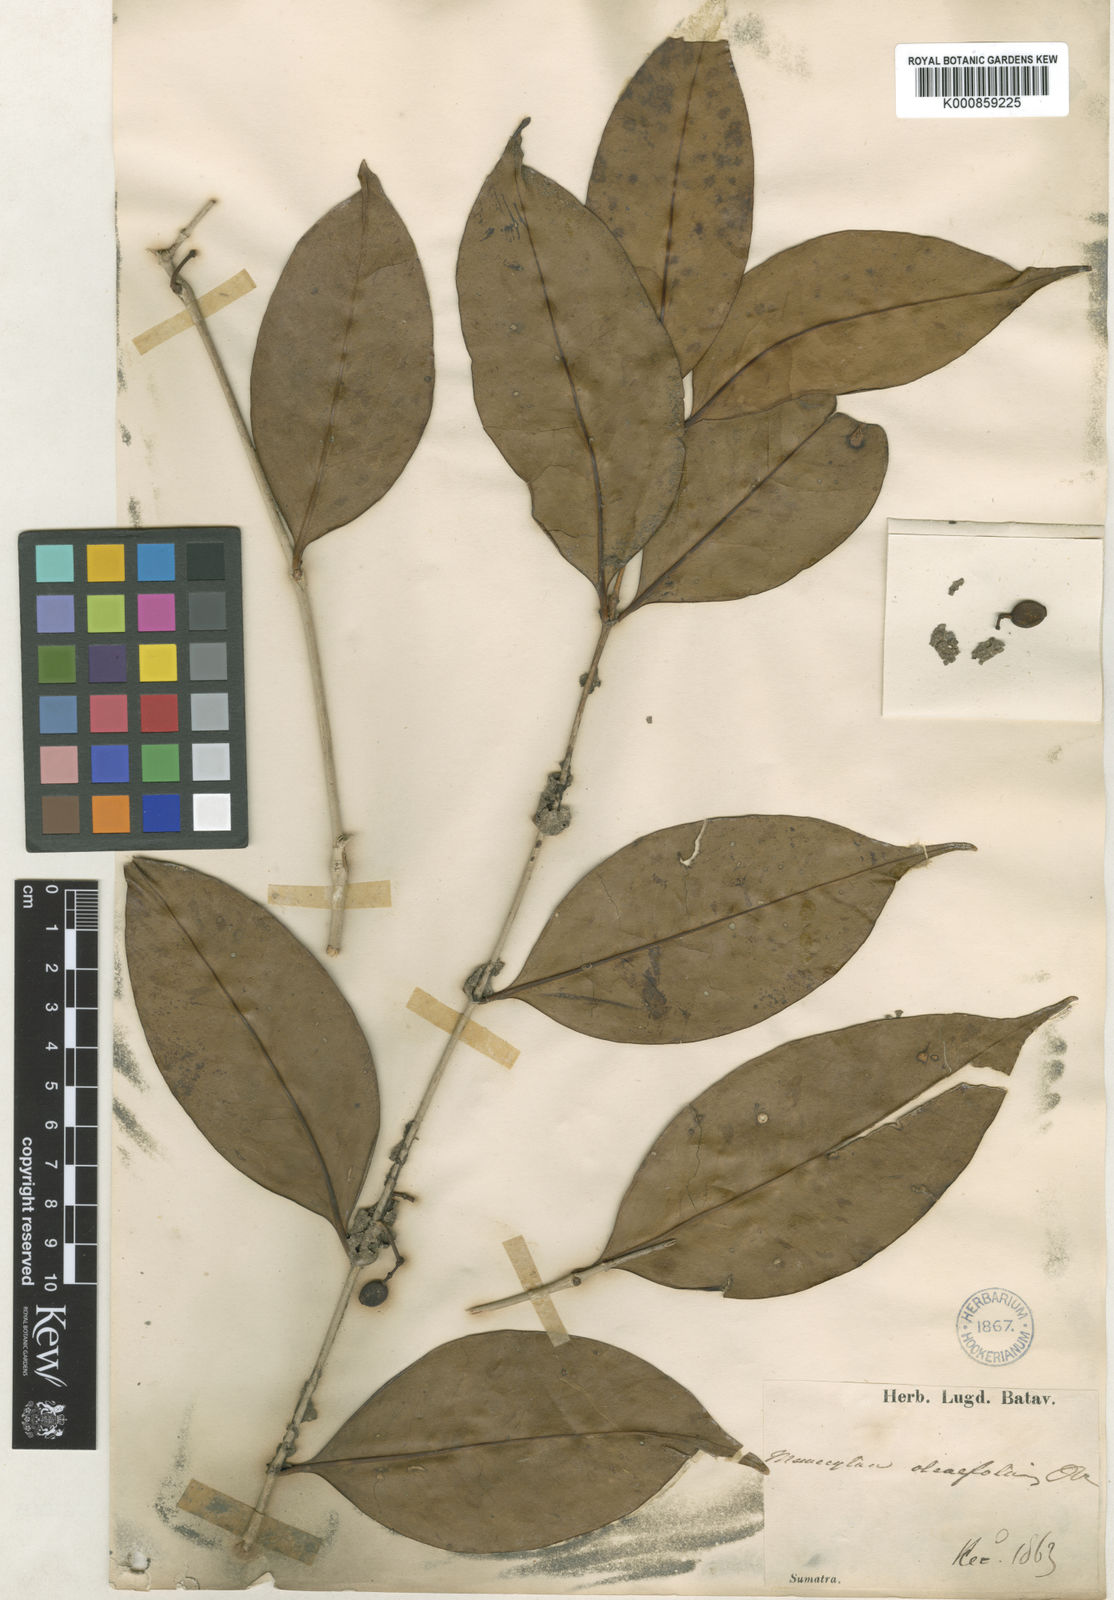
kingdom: Plantae
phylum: Tracheophyta
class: Magnoliopsida
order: Myrtales
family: Melastomataceae
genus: Memecylon
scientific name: Memecylon ochroleucum
